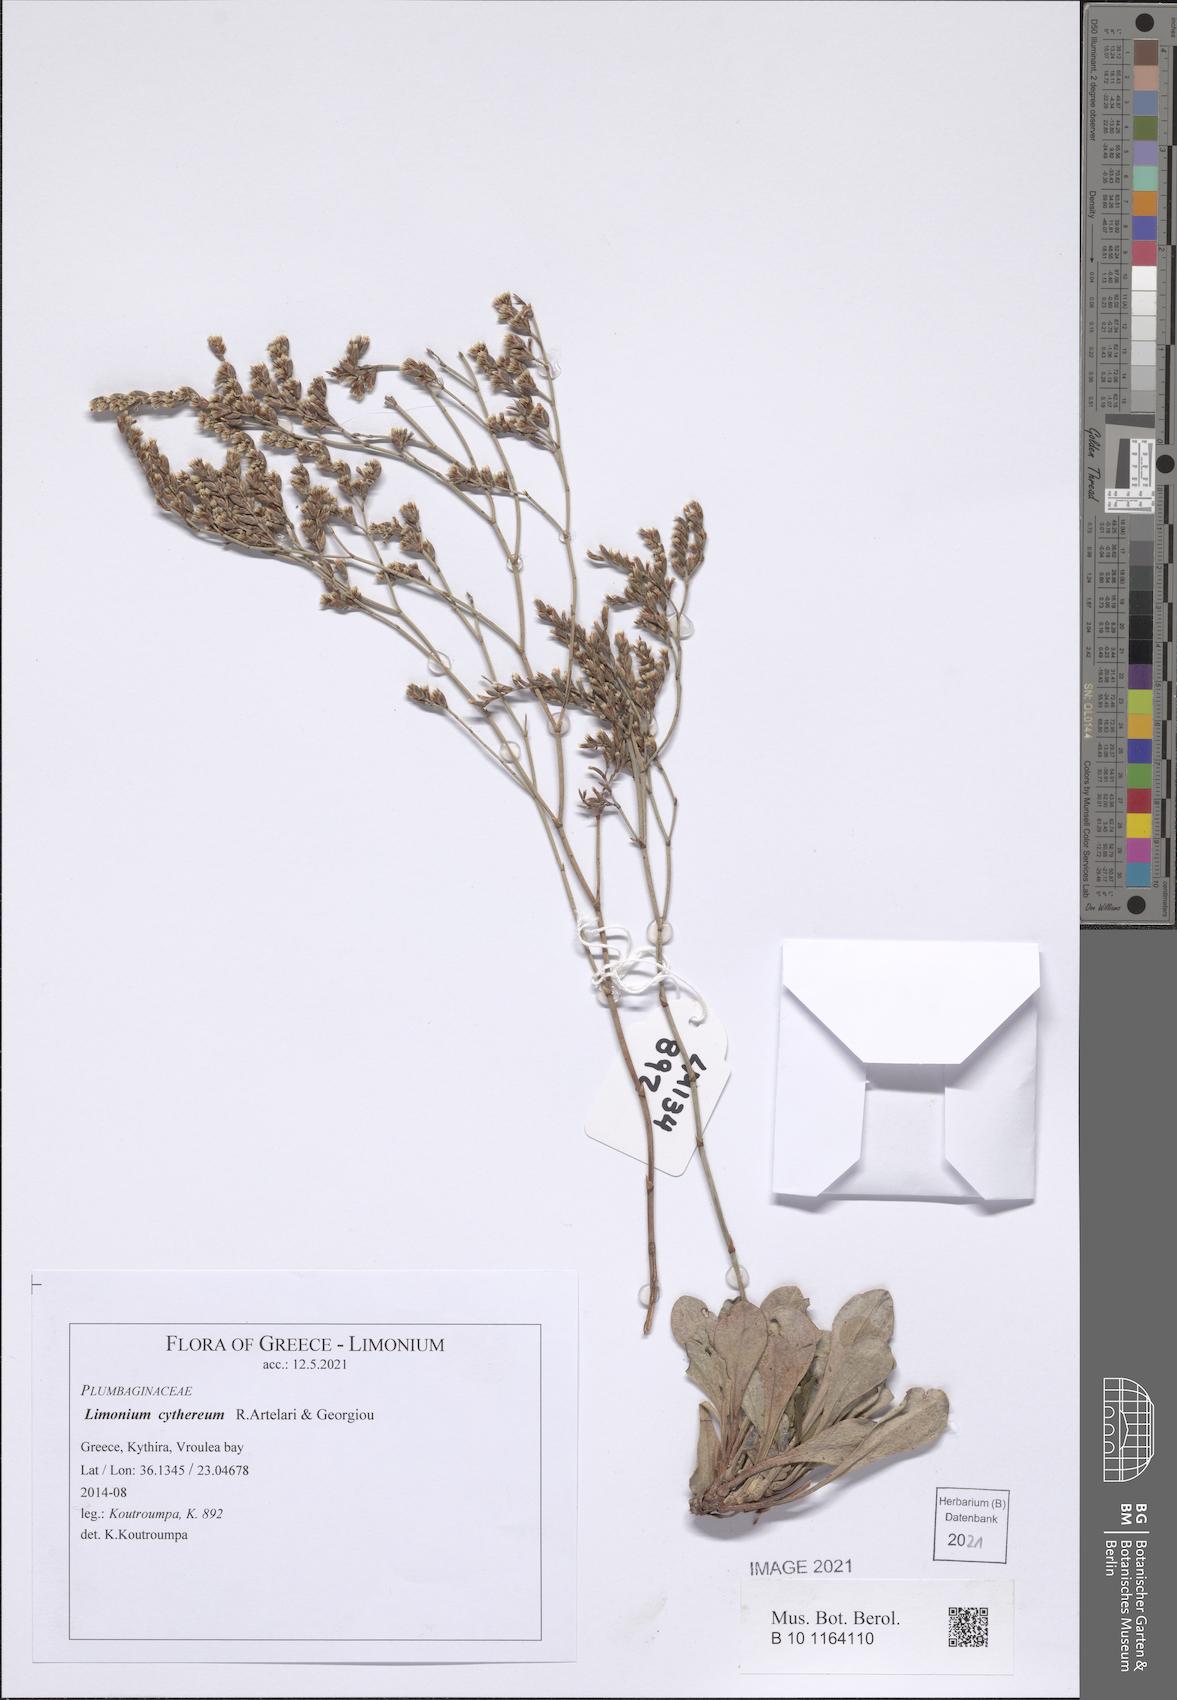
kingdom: Plantae
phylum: Tracheophyta
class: Magnoliopsida
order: Caryophyllales
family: Plumbaginaceae
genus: Limonium
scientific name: Limonium cythereum
